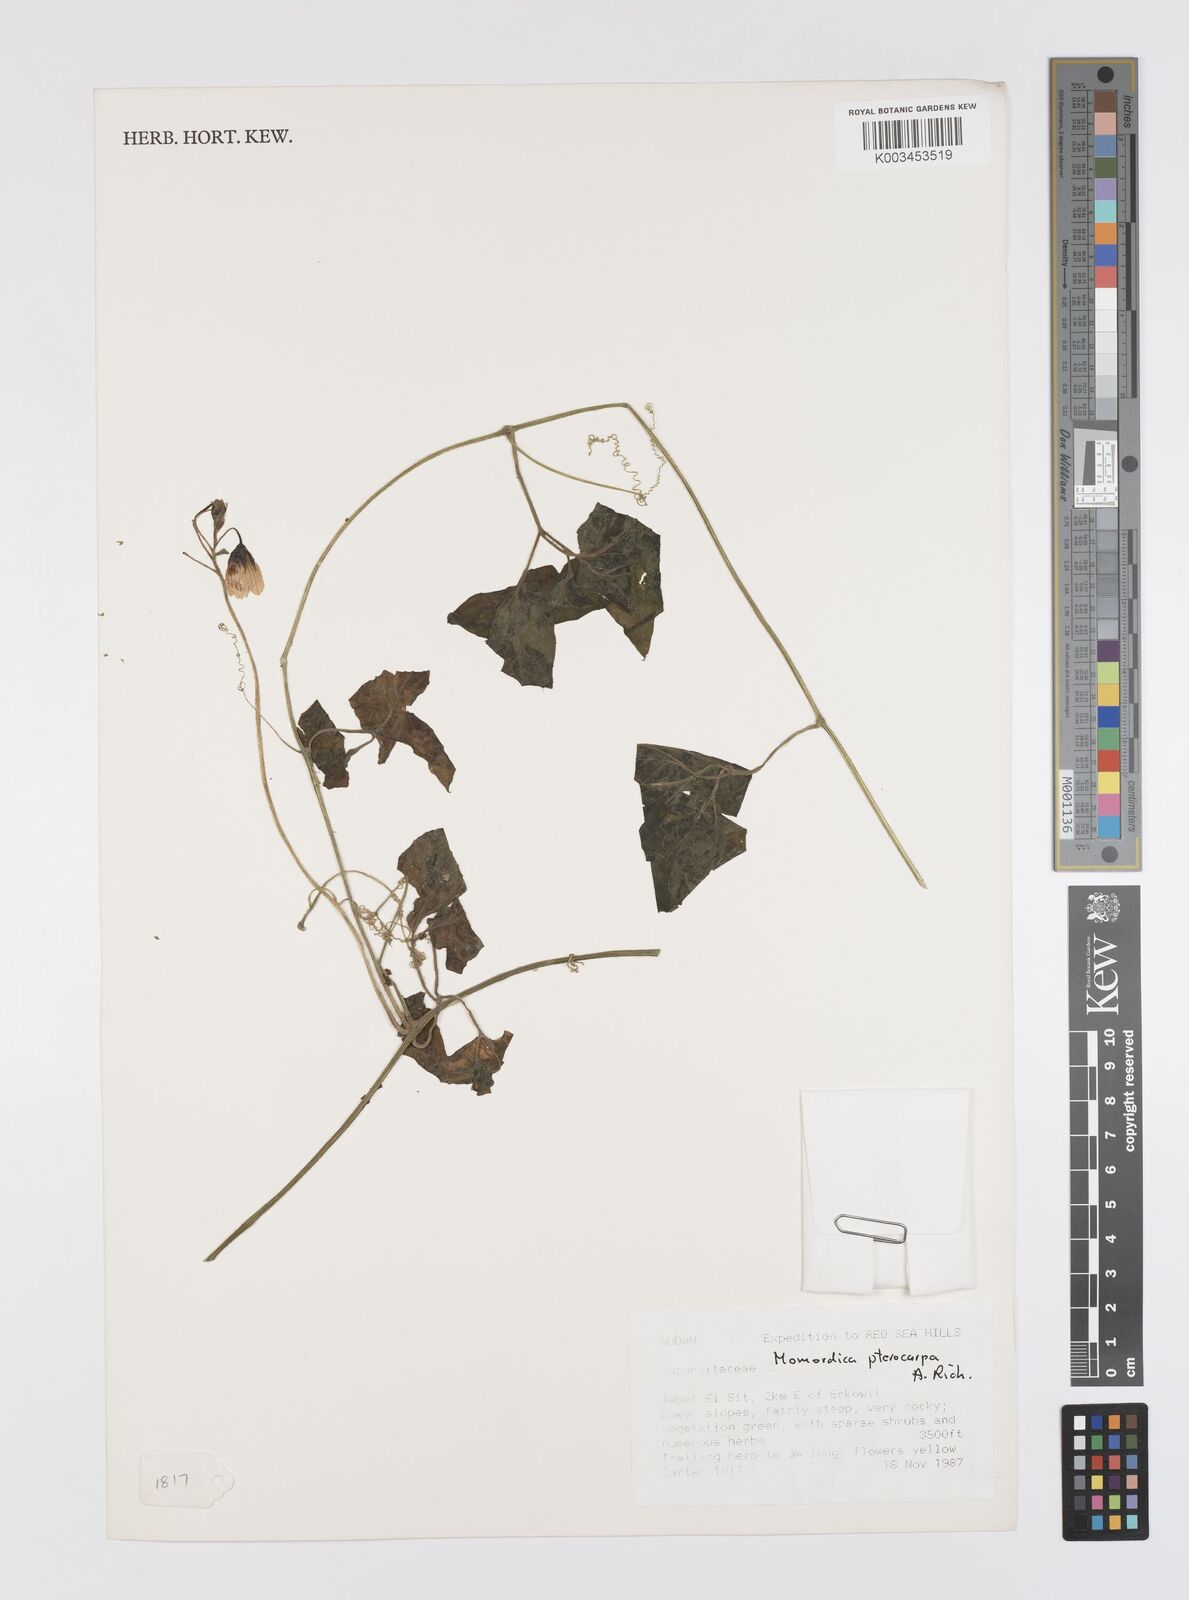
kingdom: Plantae
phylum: Tracheophyta
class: Magnoliopsida
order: Cucurbitales
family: Cucurbitaceae
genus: Momordica
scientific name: Momordica pterocarpa
